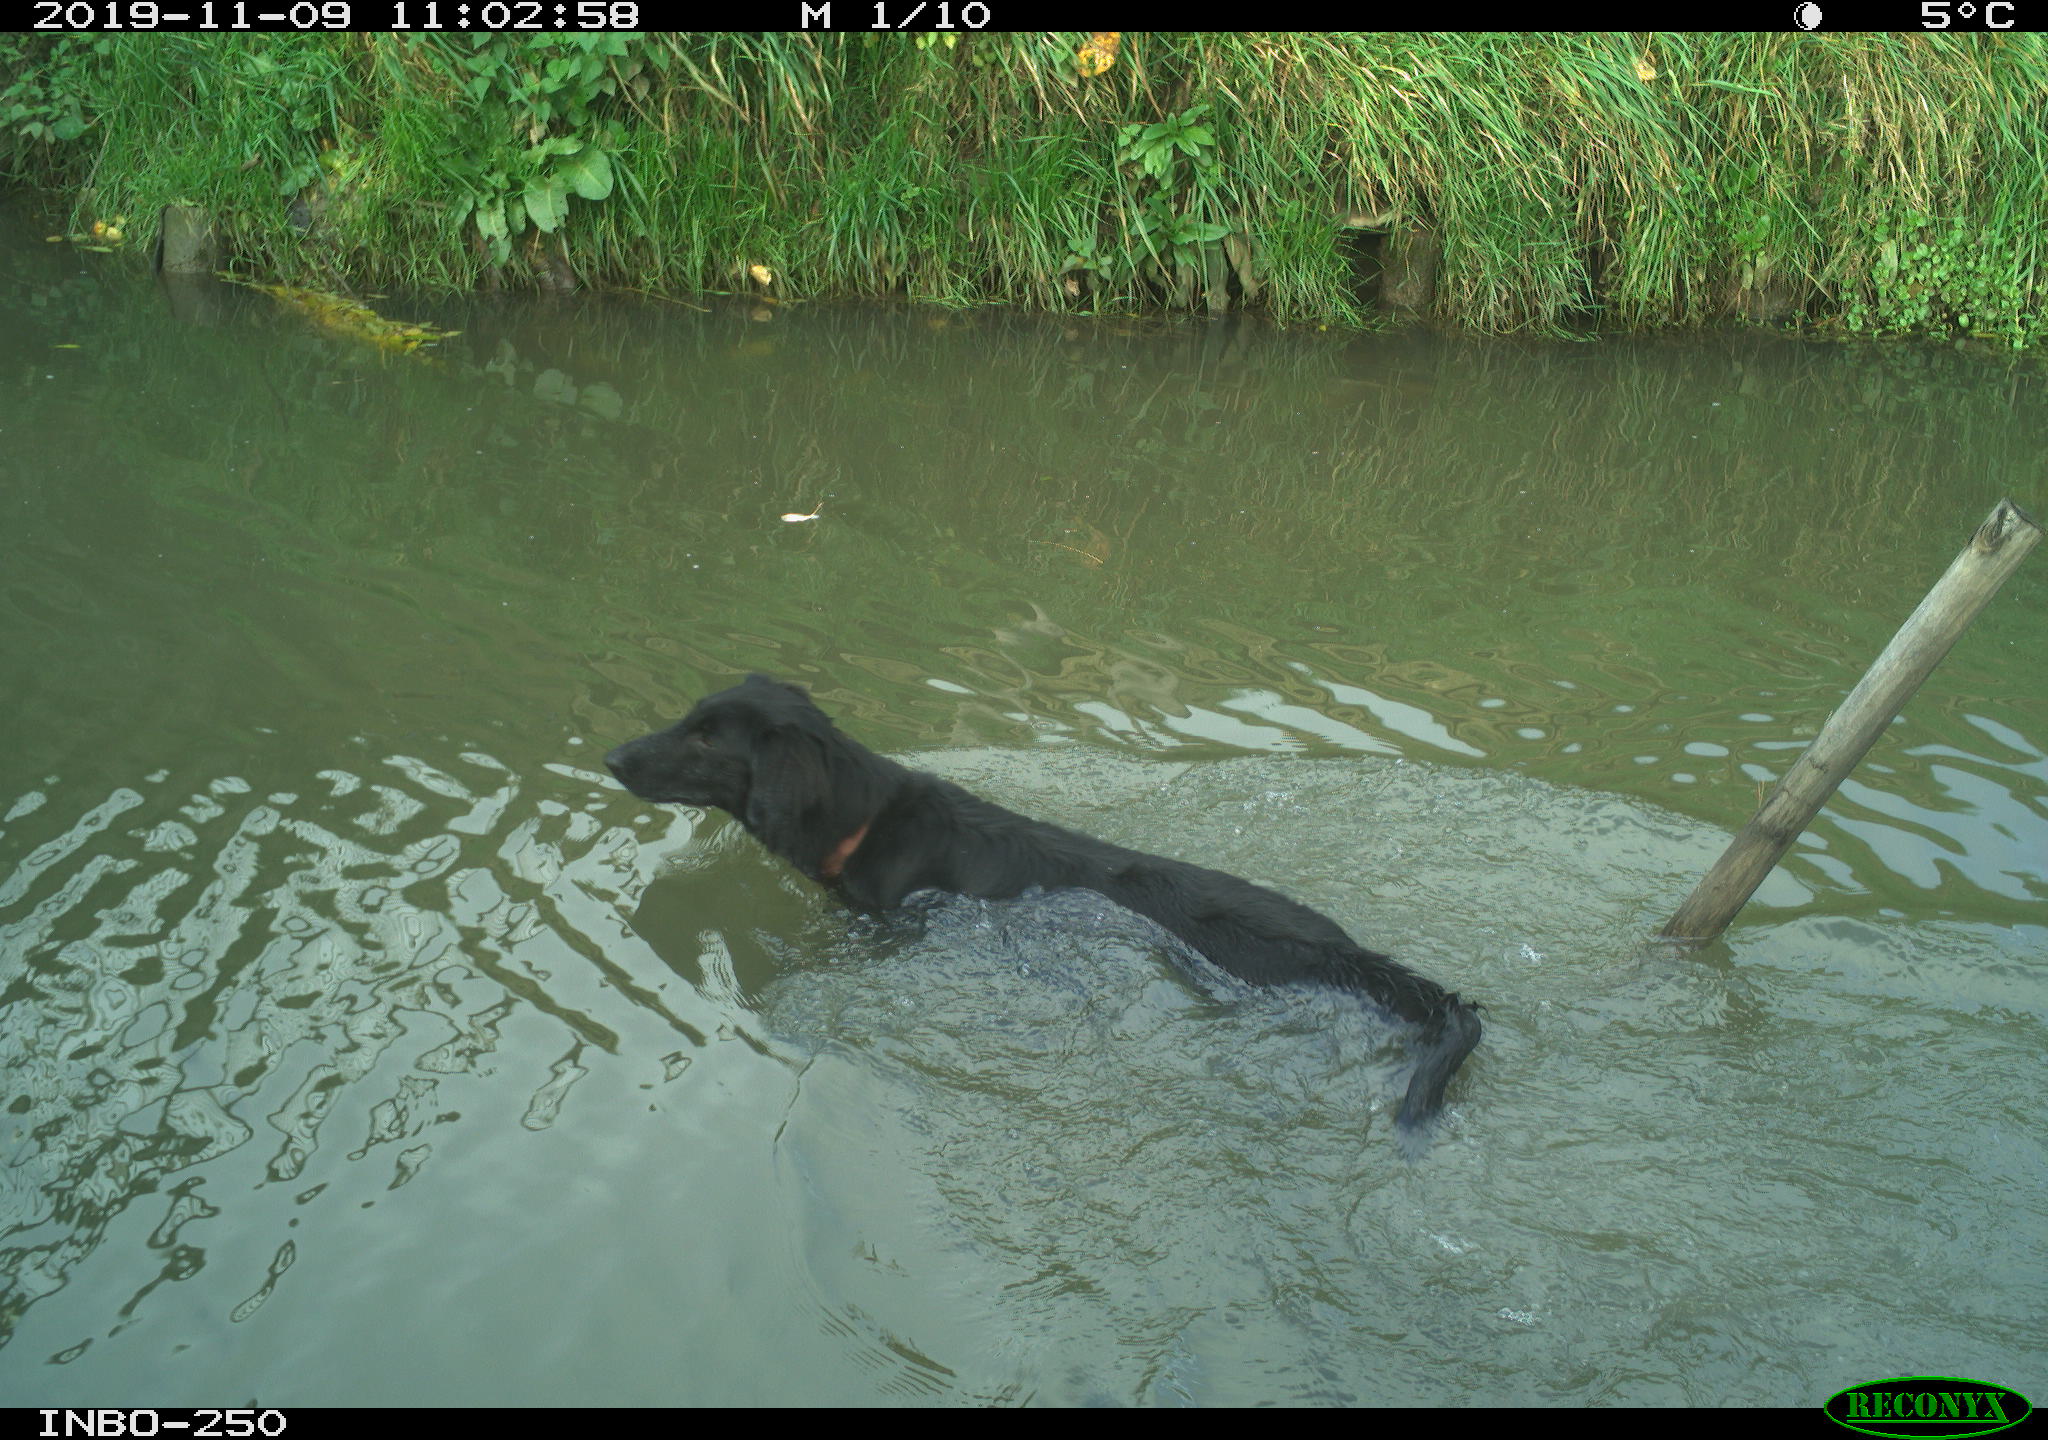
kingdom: Animalia
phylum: Chordata
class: Mammalia
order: Carnivora
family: Canidae
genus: Canis
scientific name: Canis lupus
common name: Gray wolf
